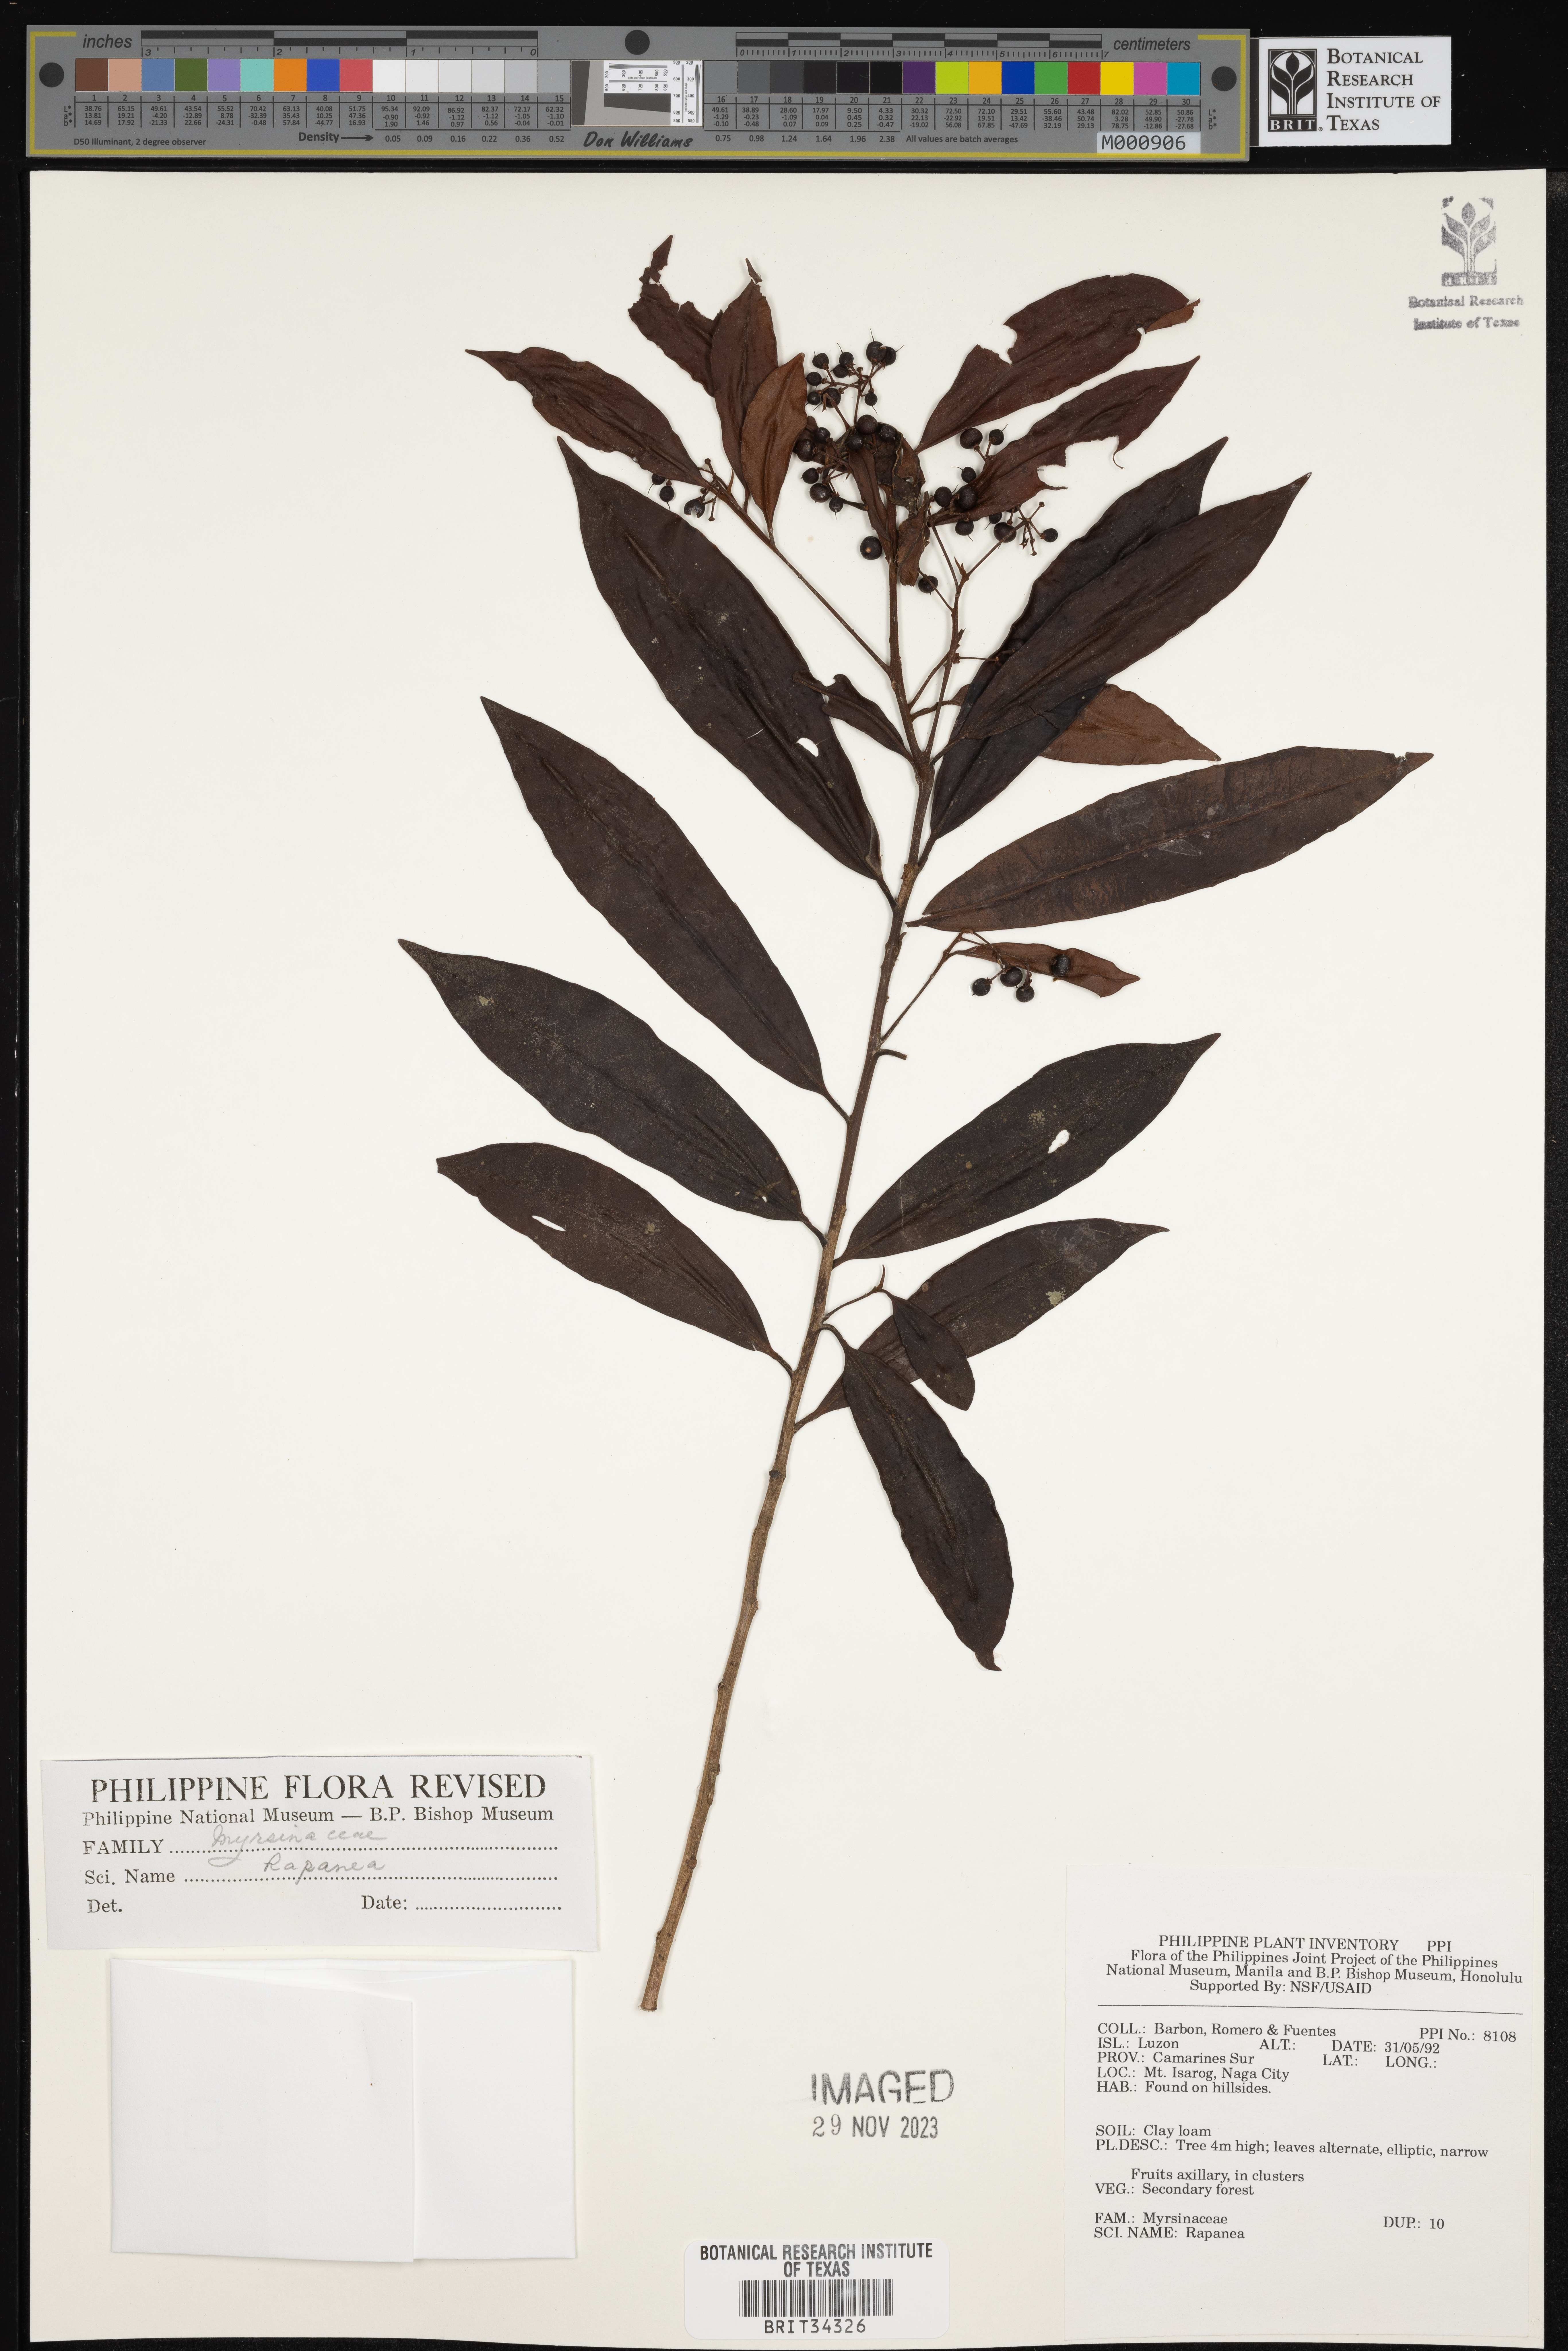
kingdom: Plantae
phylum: Tracheophyta
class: Magnoliopsida
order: Ericales
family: Primulaceae
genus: Myrsine
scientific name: Myrsine
